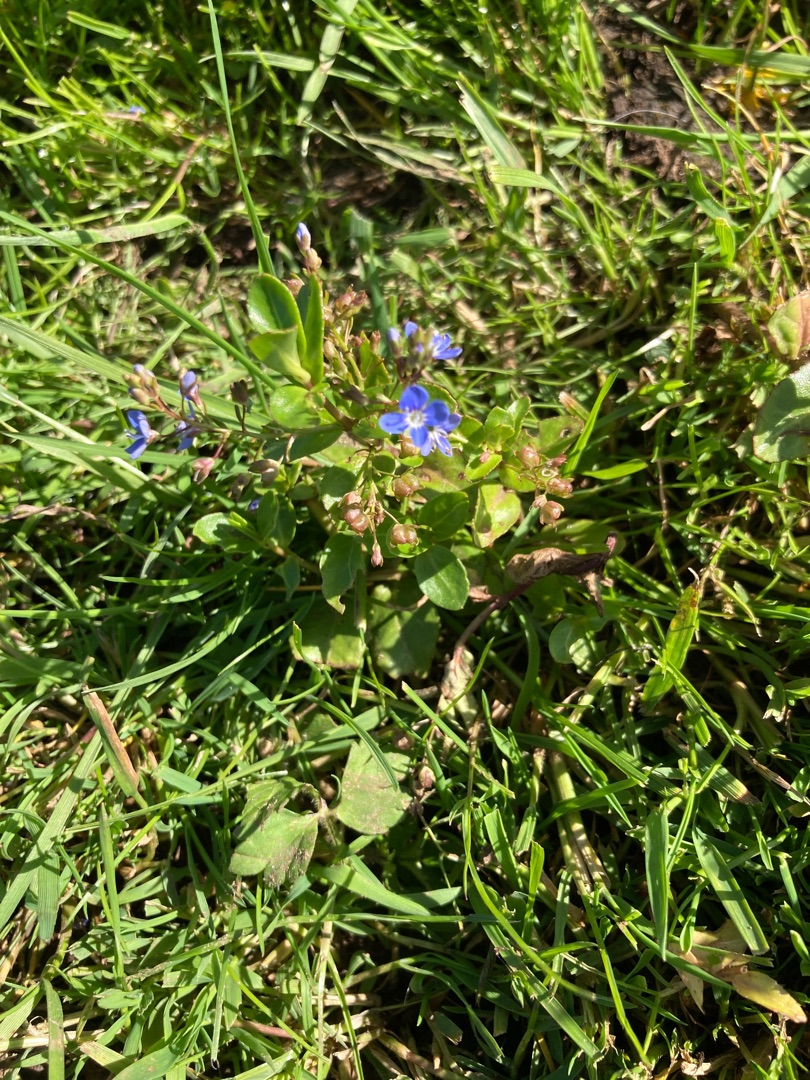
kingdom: Plantae
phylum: Tracheophyta
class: Magnoliopsida
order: Lamiales
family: Plantaginaceae
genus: Veronica
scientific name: Veronica beccabunga
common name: Tykbladet ærenpris
